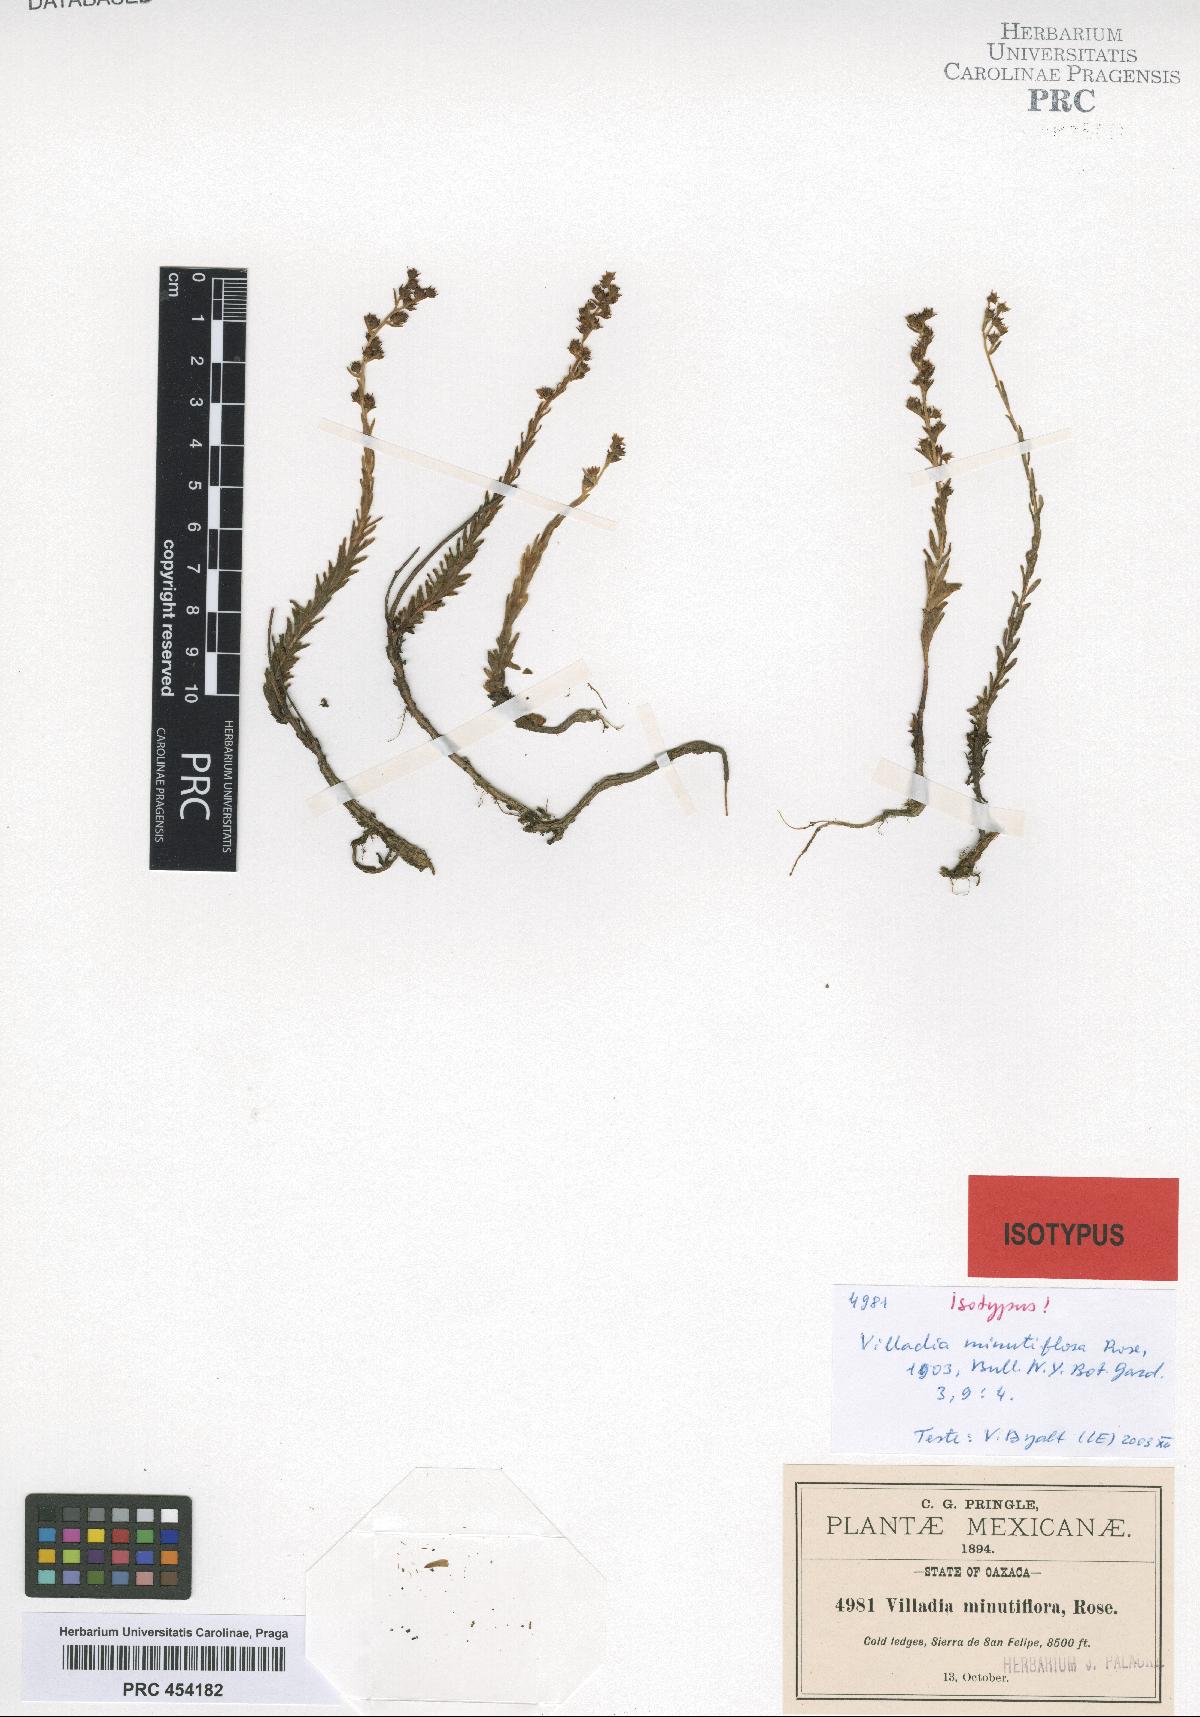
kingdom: Plantae
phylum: Tracheophyta
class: Magnoliopsida
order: Saxifragales
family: Crassulaceae
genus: Villadia
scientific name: Villadia minutiflora
